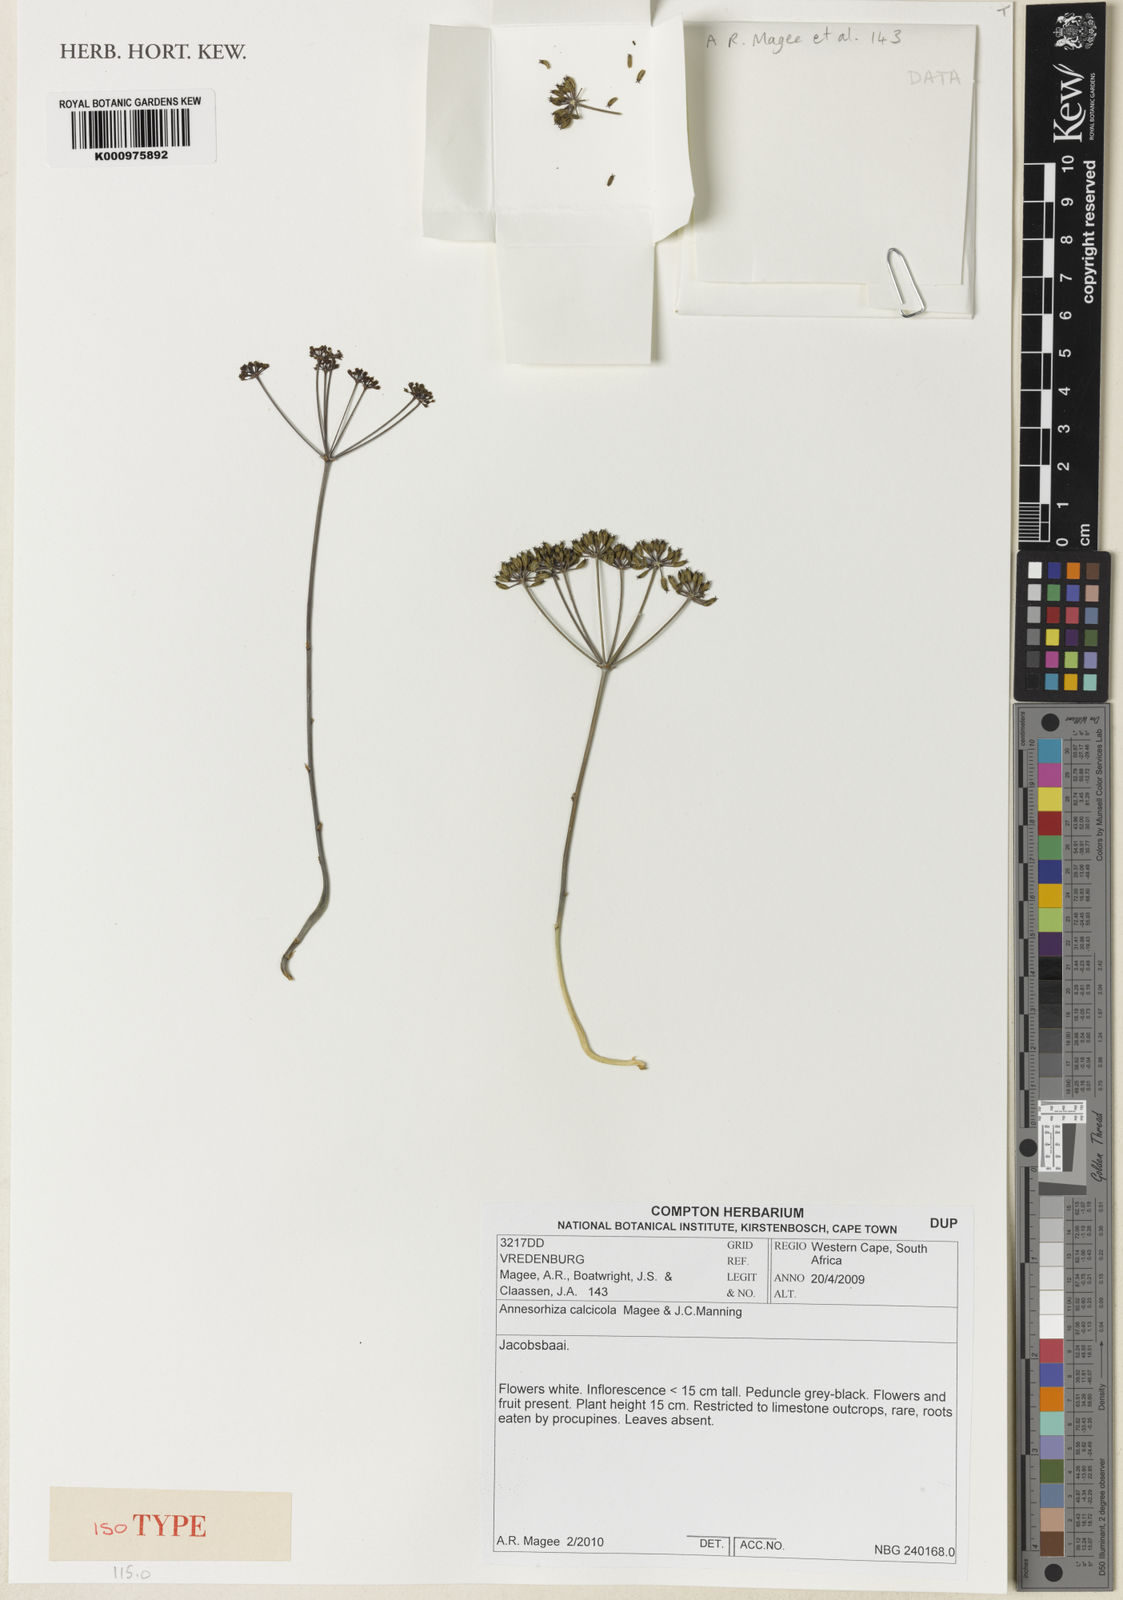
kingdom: Plantae
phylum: Tracheophyta
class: Magnoliopsida
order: Apiales
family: Apiaceae
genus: Annesorhiza
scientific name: Annesorhiza calcicola
